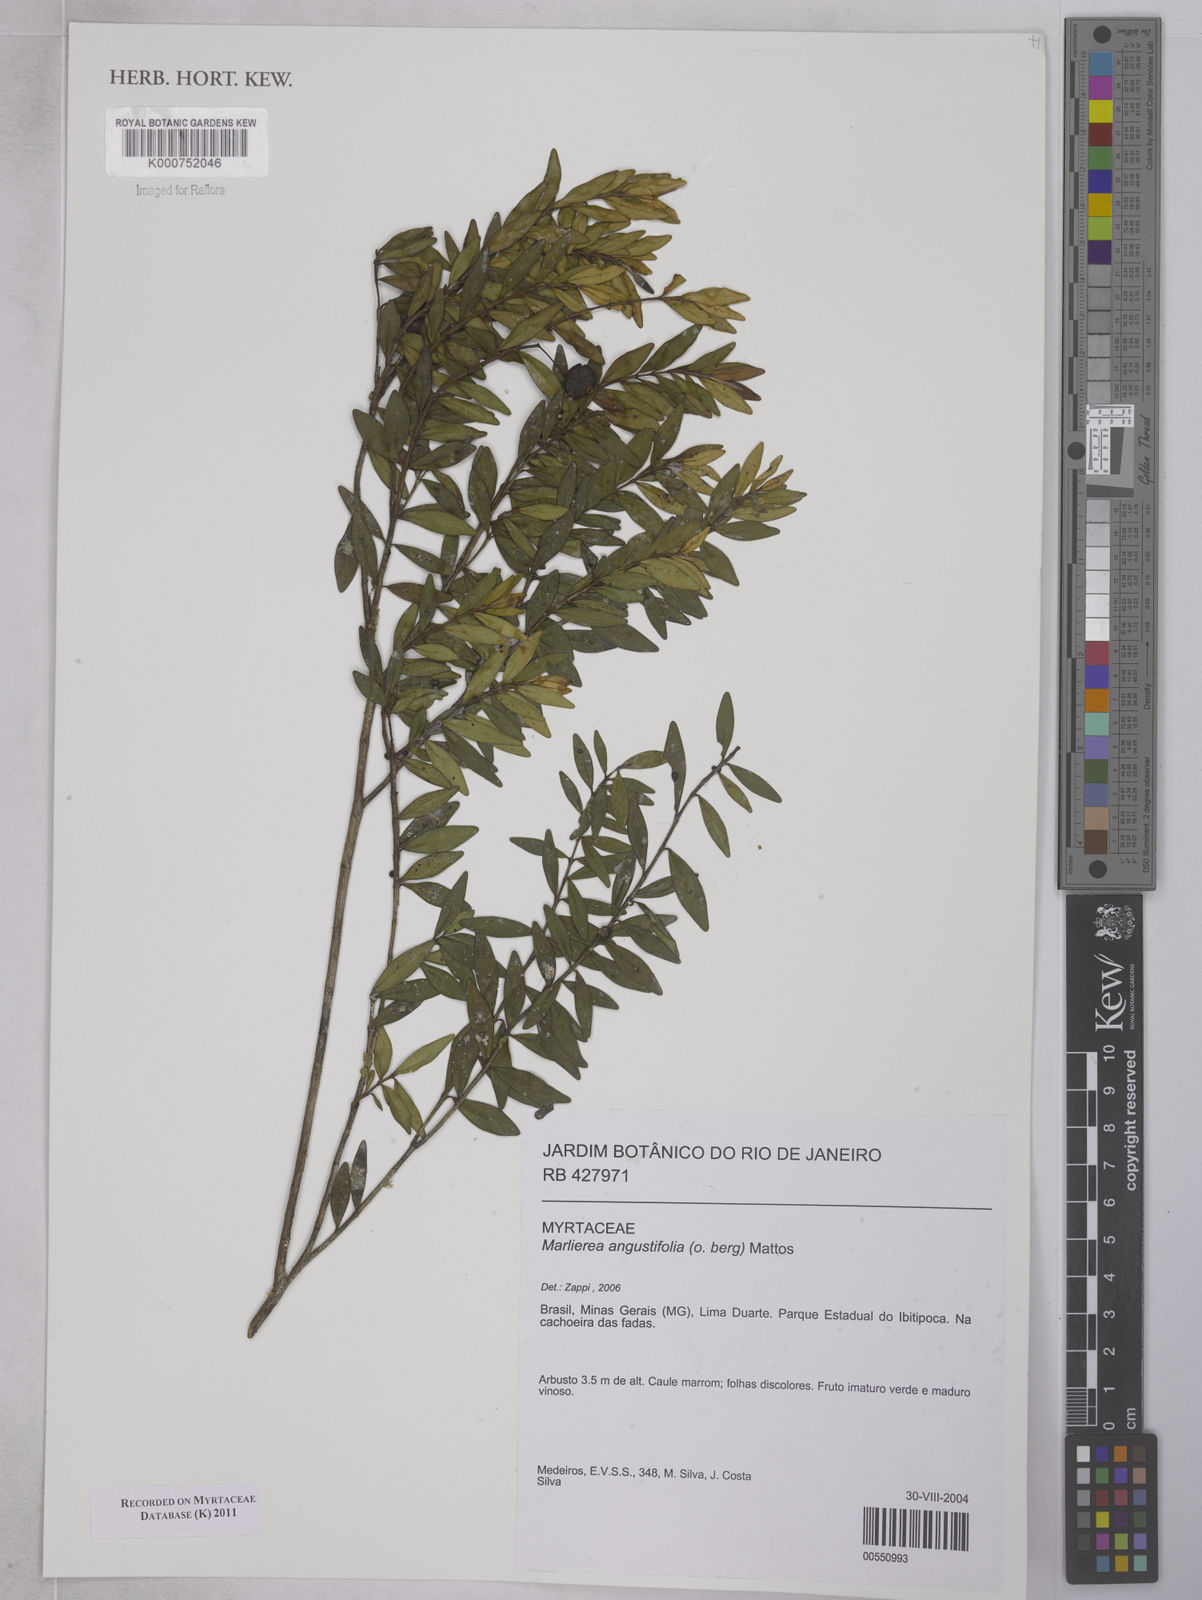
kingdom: Plantae
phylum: Tracheophyta
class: Magnoliopsida
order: Myrtales
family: Myrtaceae
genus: Myrcia
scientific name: Myrcia lenheirensis
